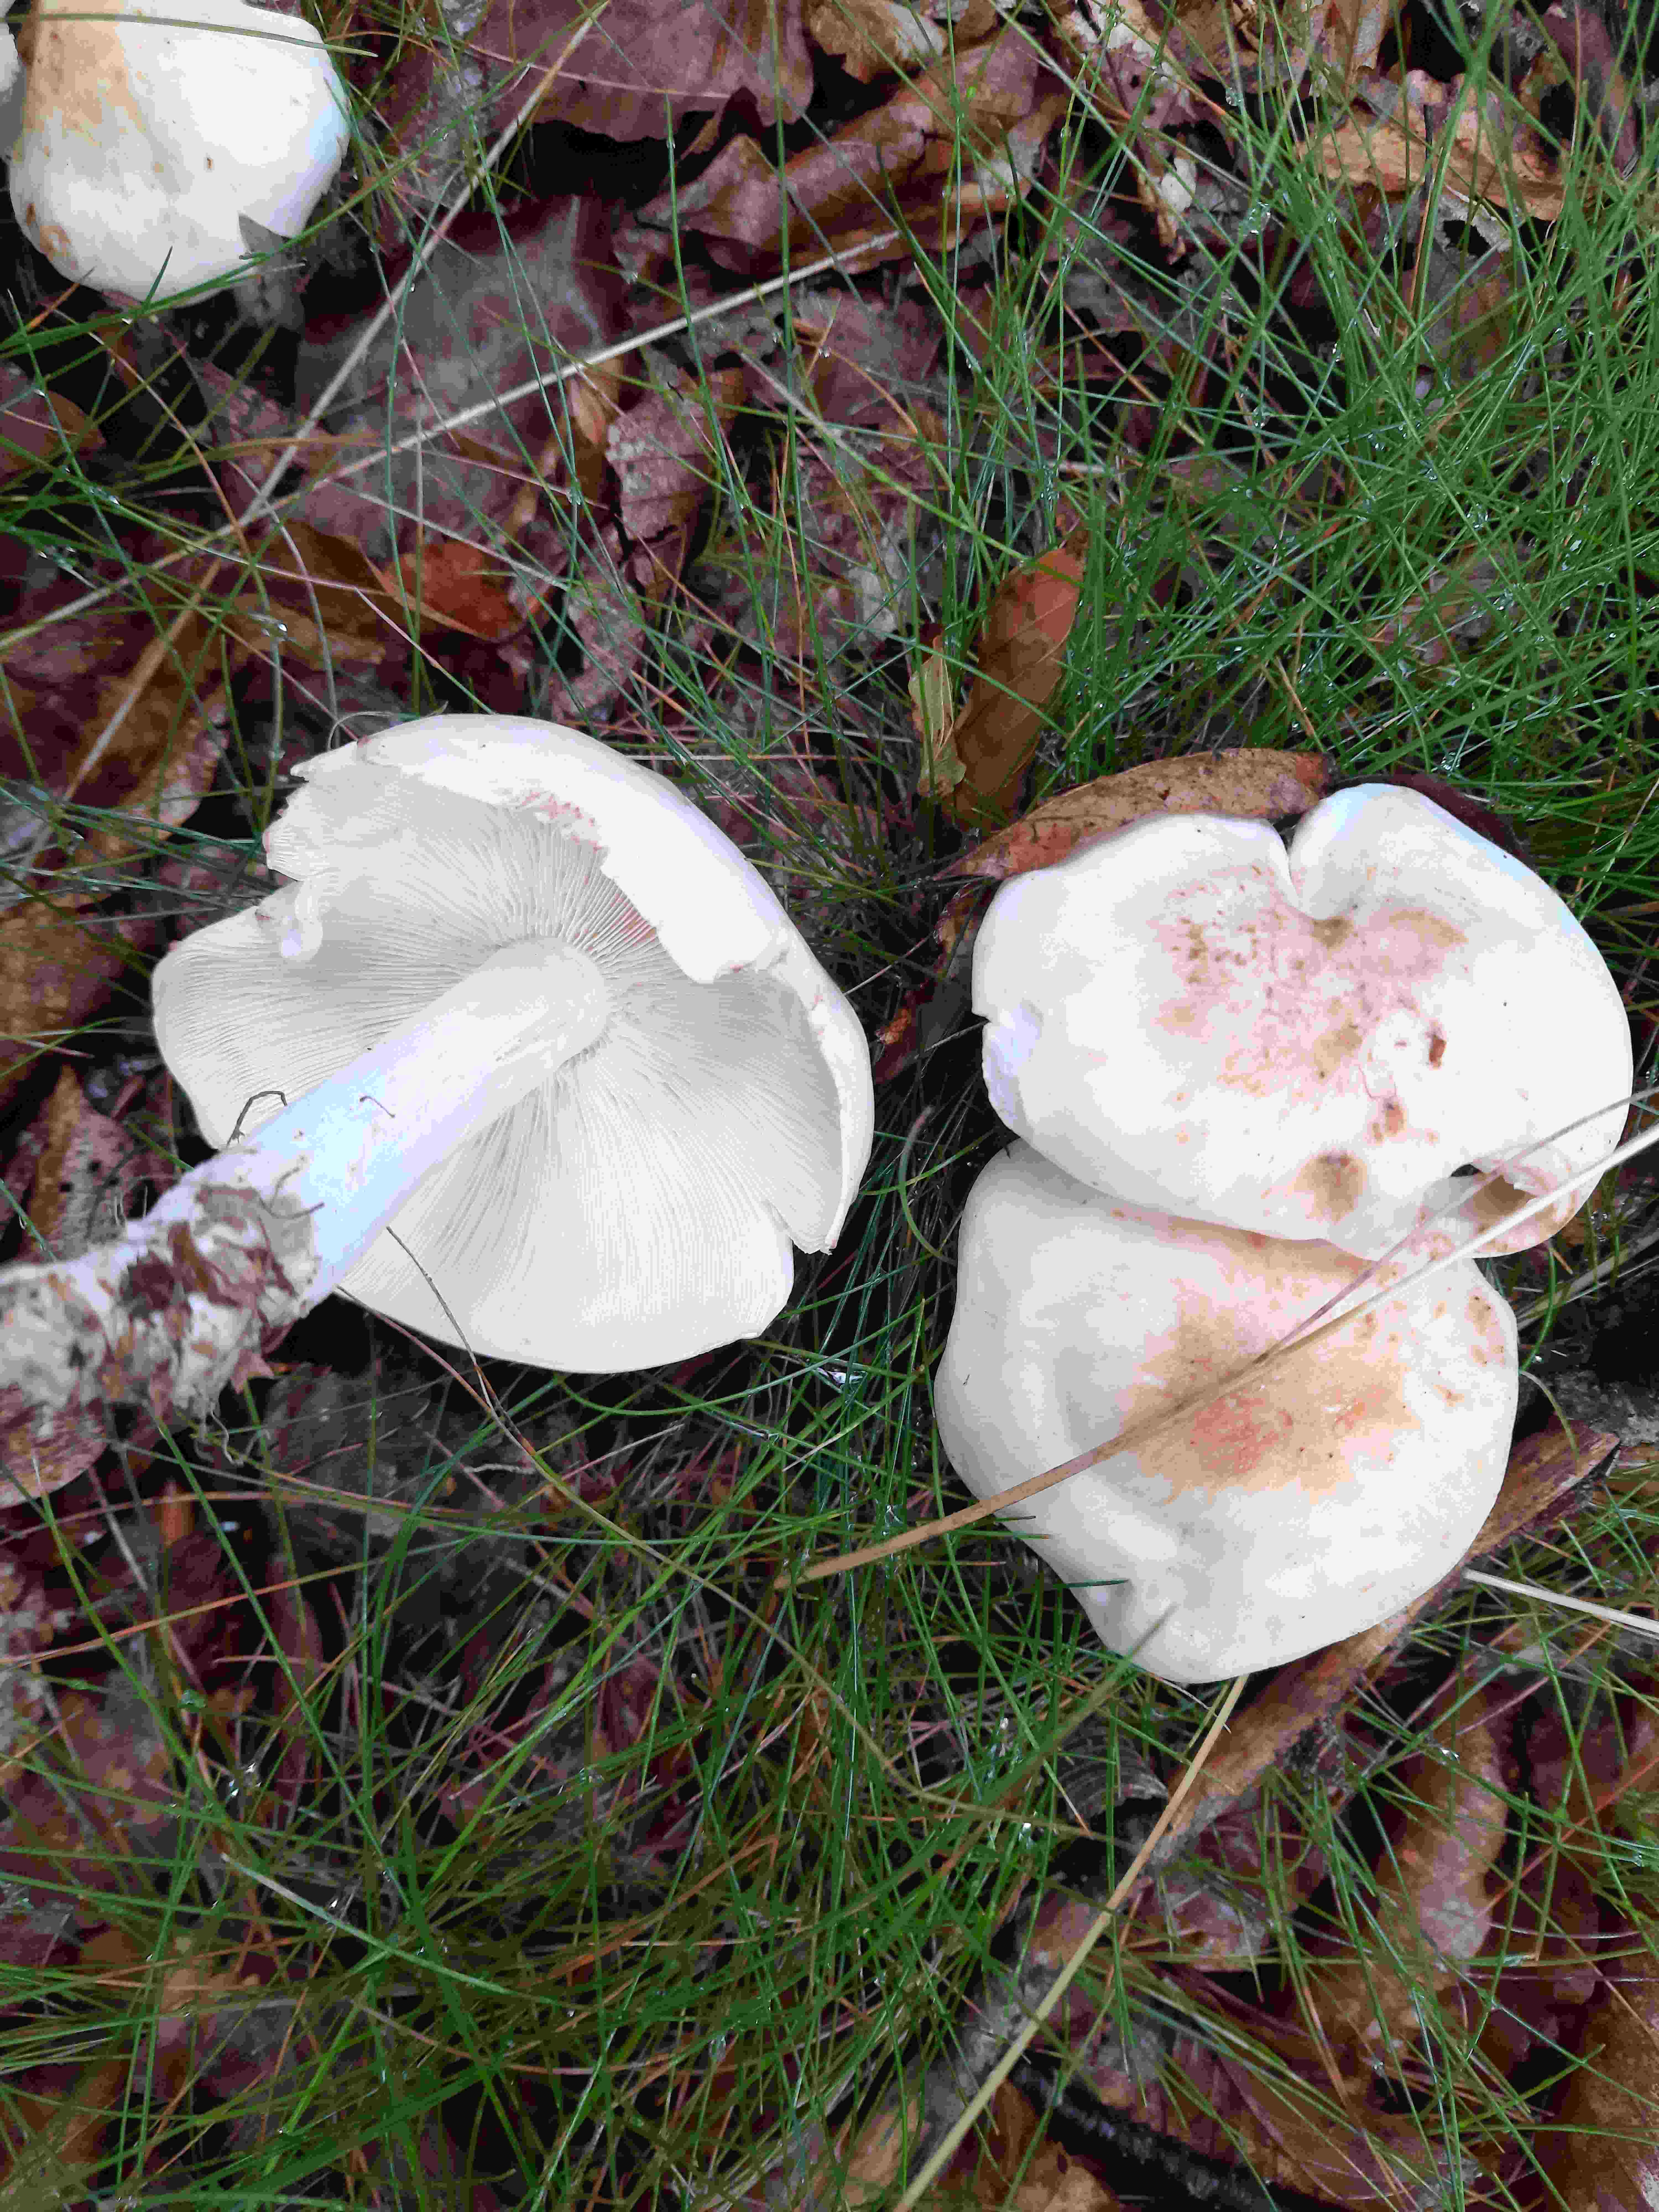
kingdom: Fungi
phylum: Basidiomycota
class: Agaricomycetes
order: Agaricales
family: Omphalotaceae
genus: Rhodocollybia
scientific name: Rhodocollybia maculata
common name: plettet fladhat
